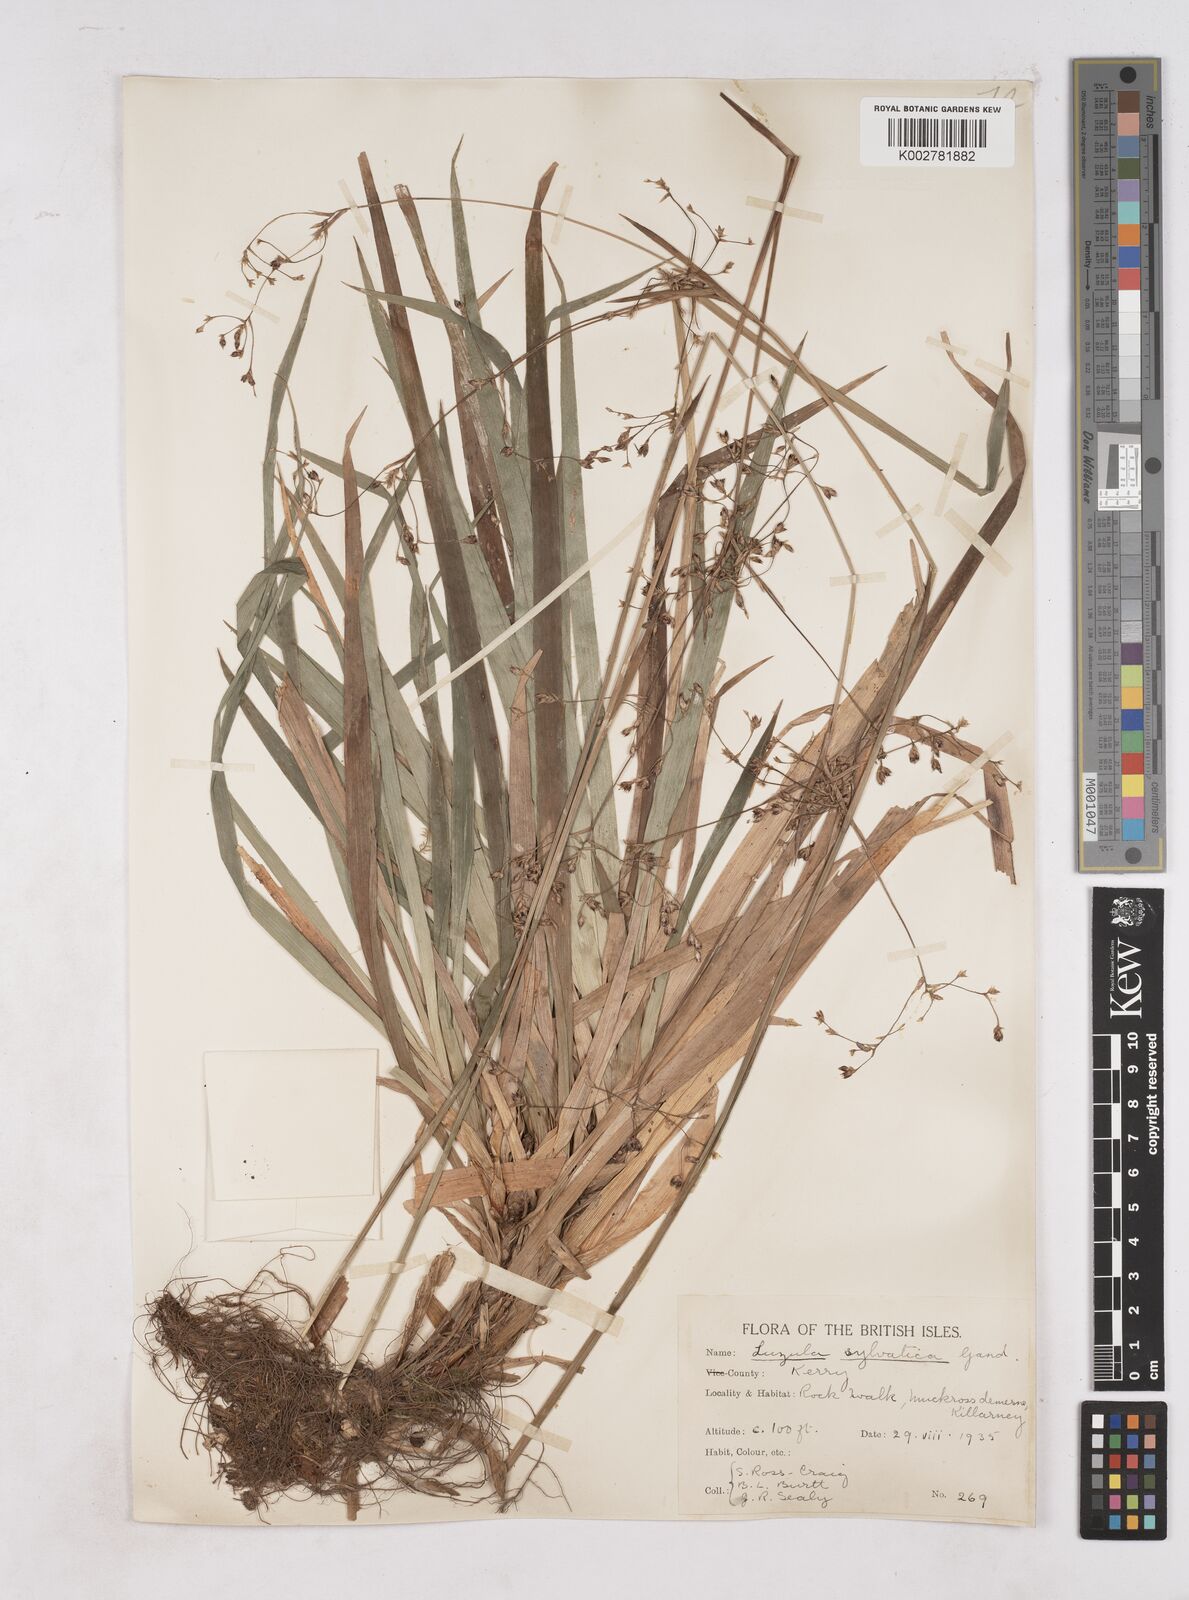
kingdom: Plantae
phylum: Tracheophyta
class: Liliopsida
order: Poales
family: Juncaceae
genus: Luzula
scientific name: Luzula sylvatica
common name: Great wood-rush
